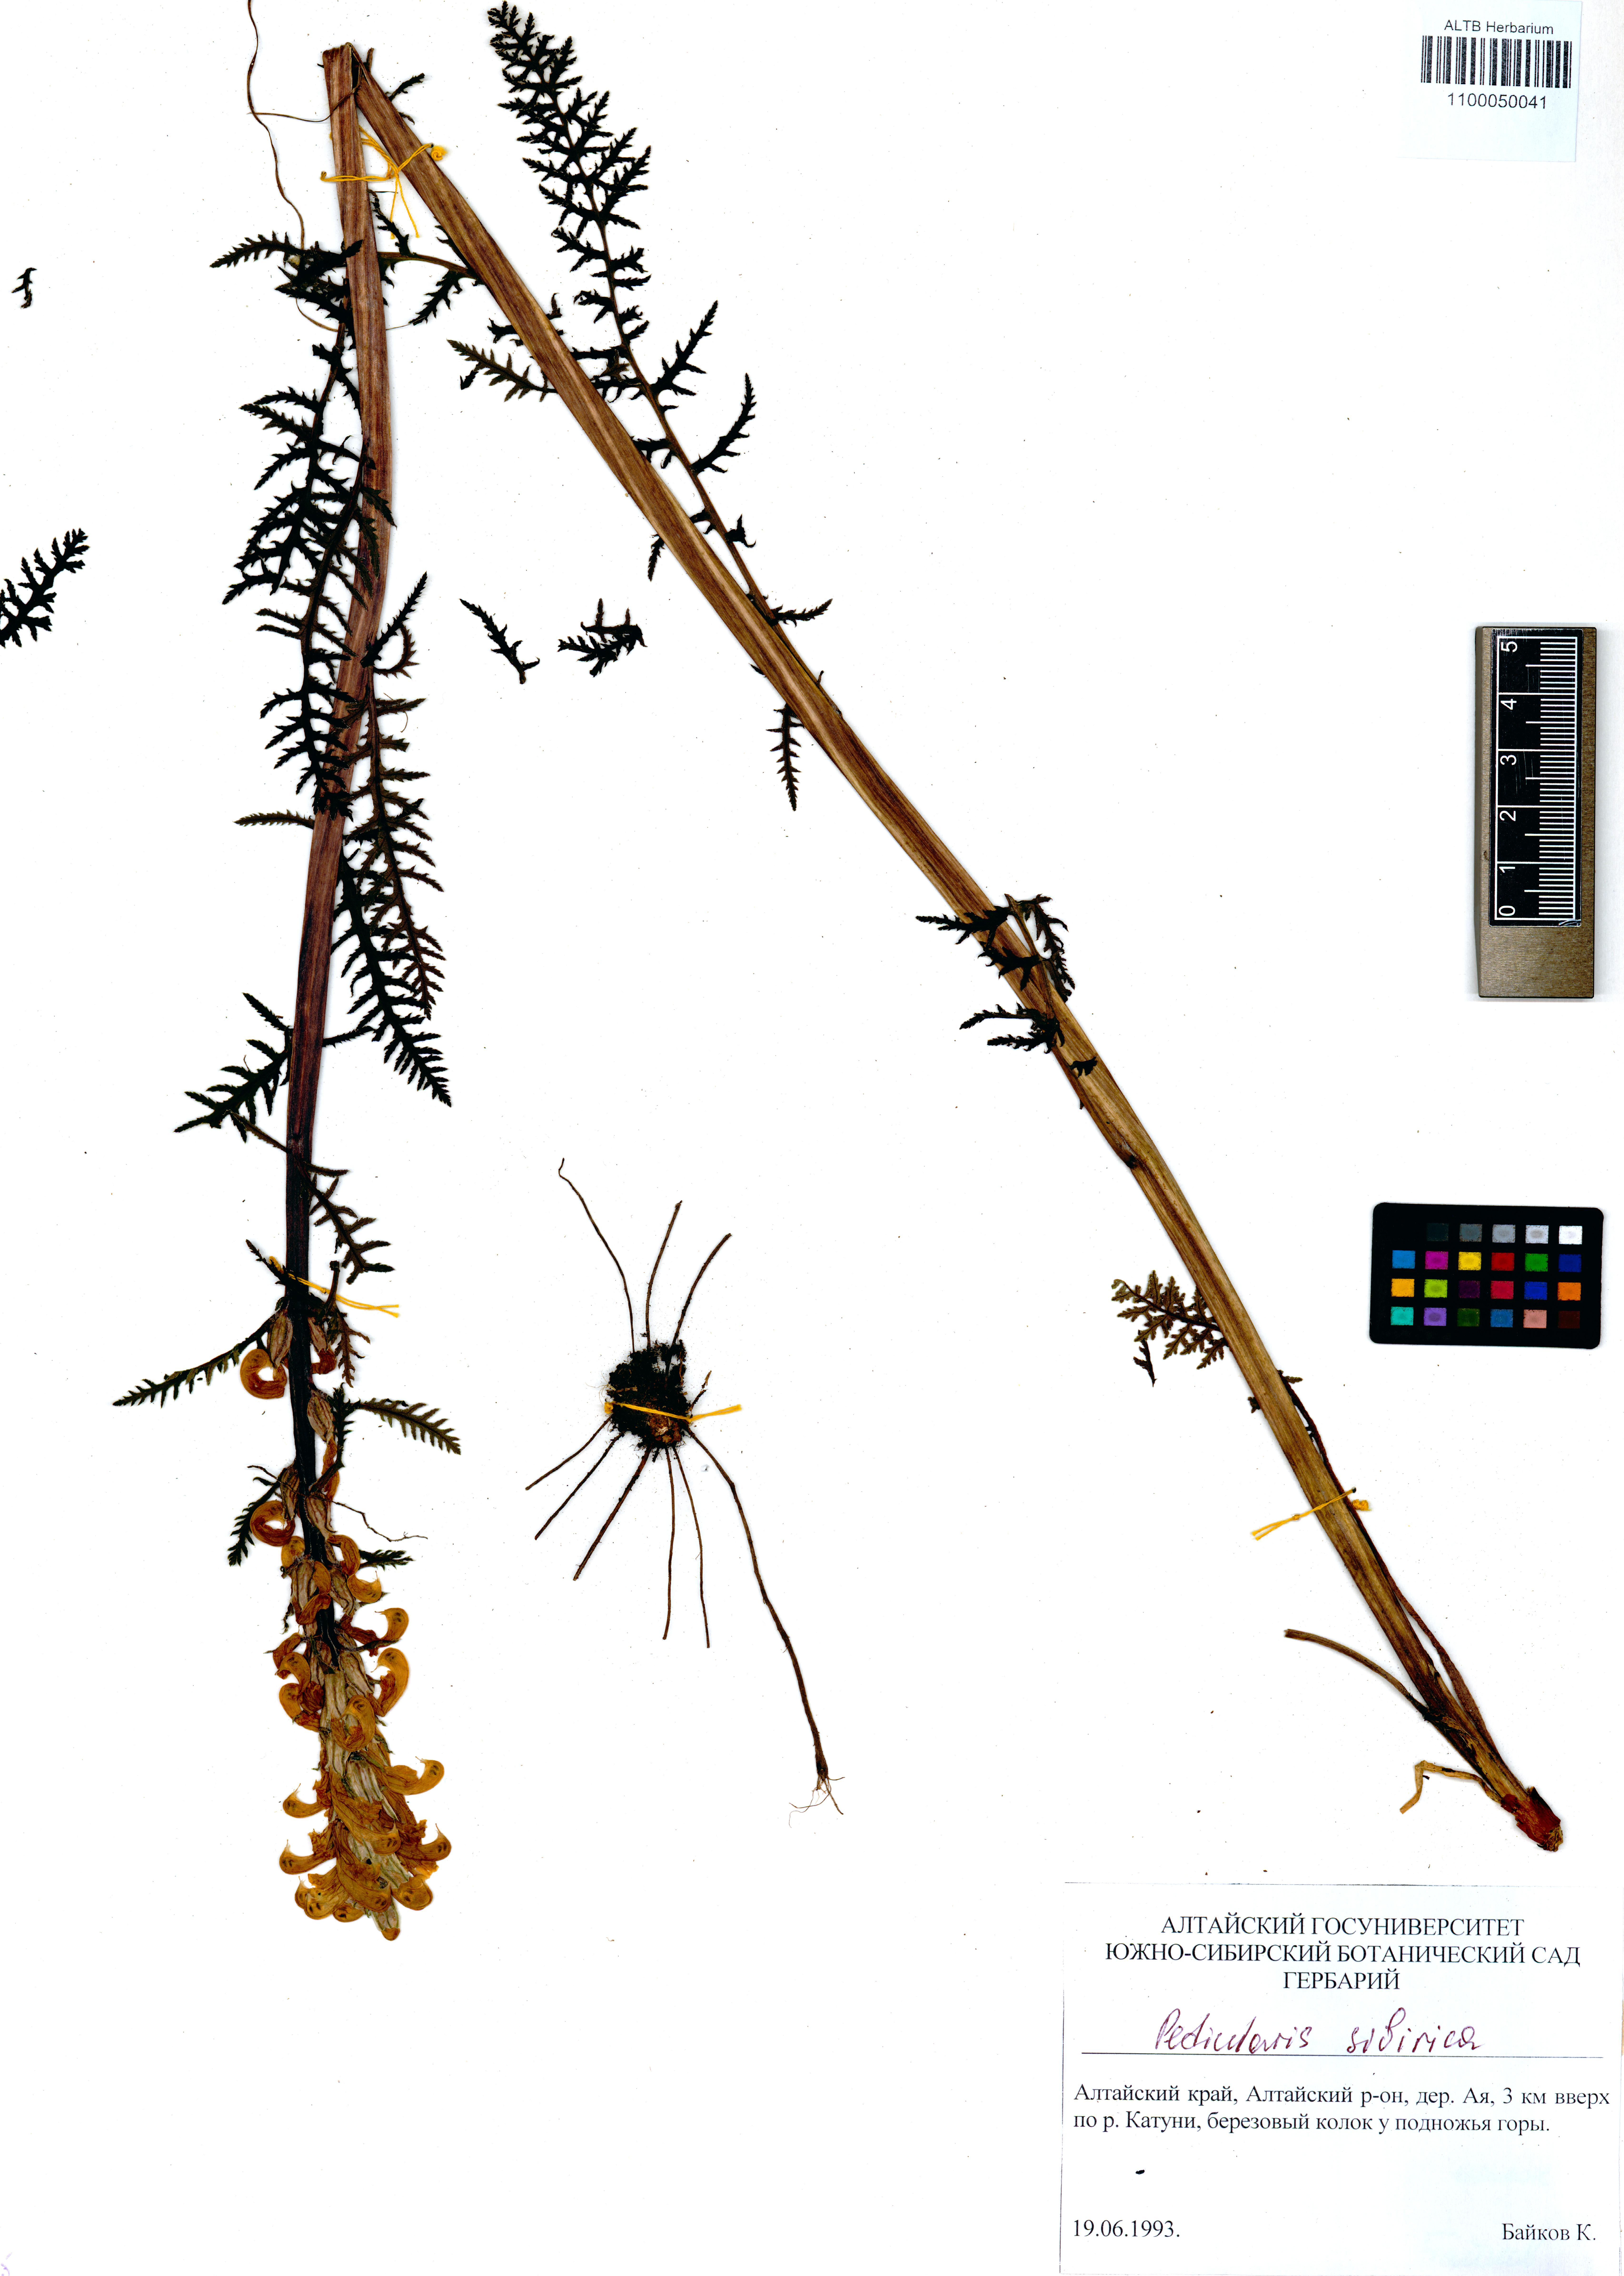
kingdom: Plantae
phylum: Tracheophyta
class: Magnoliopsida
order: Lamiales
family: Orobanchaceae
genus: Pedicularis
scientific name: Pedicularis sibirica
